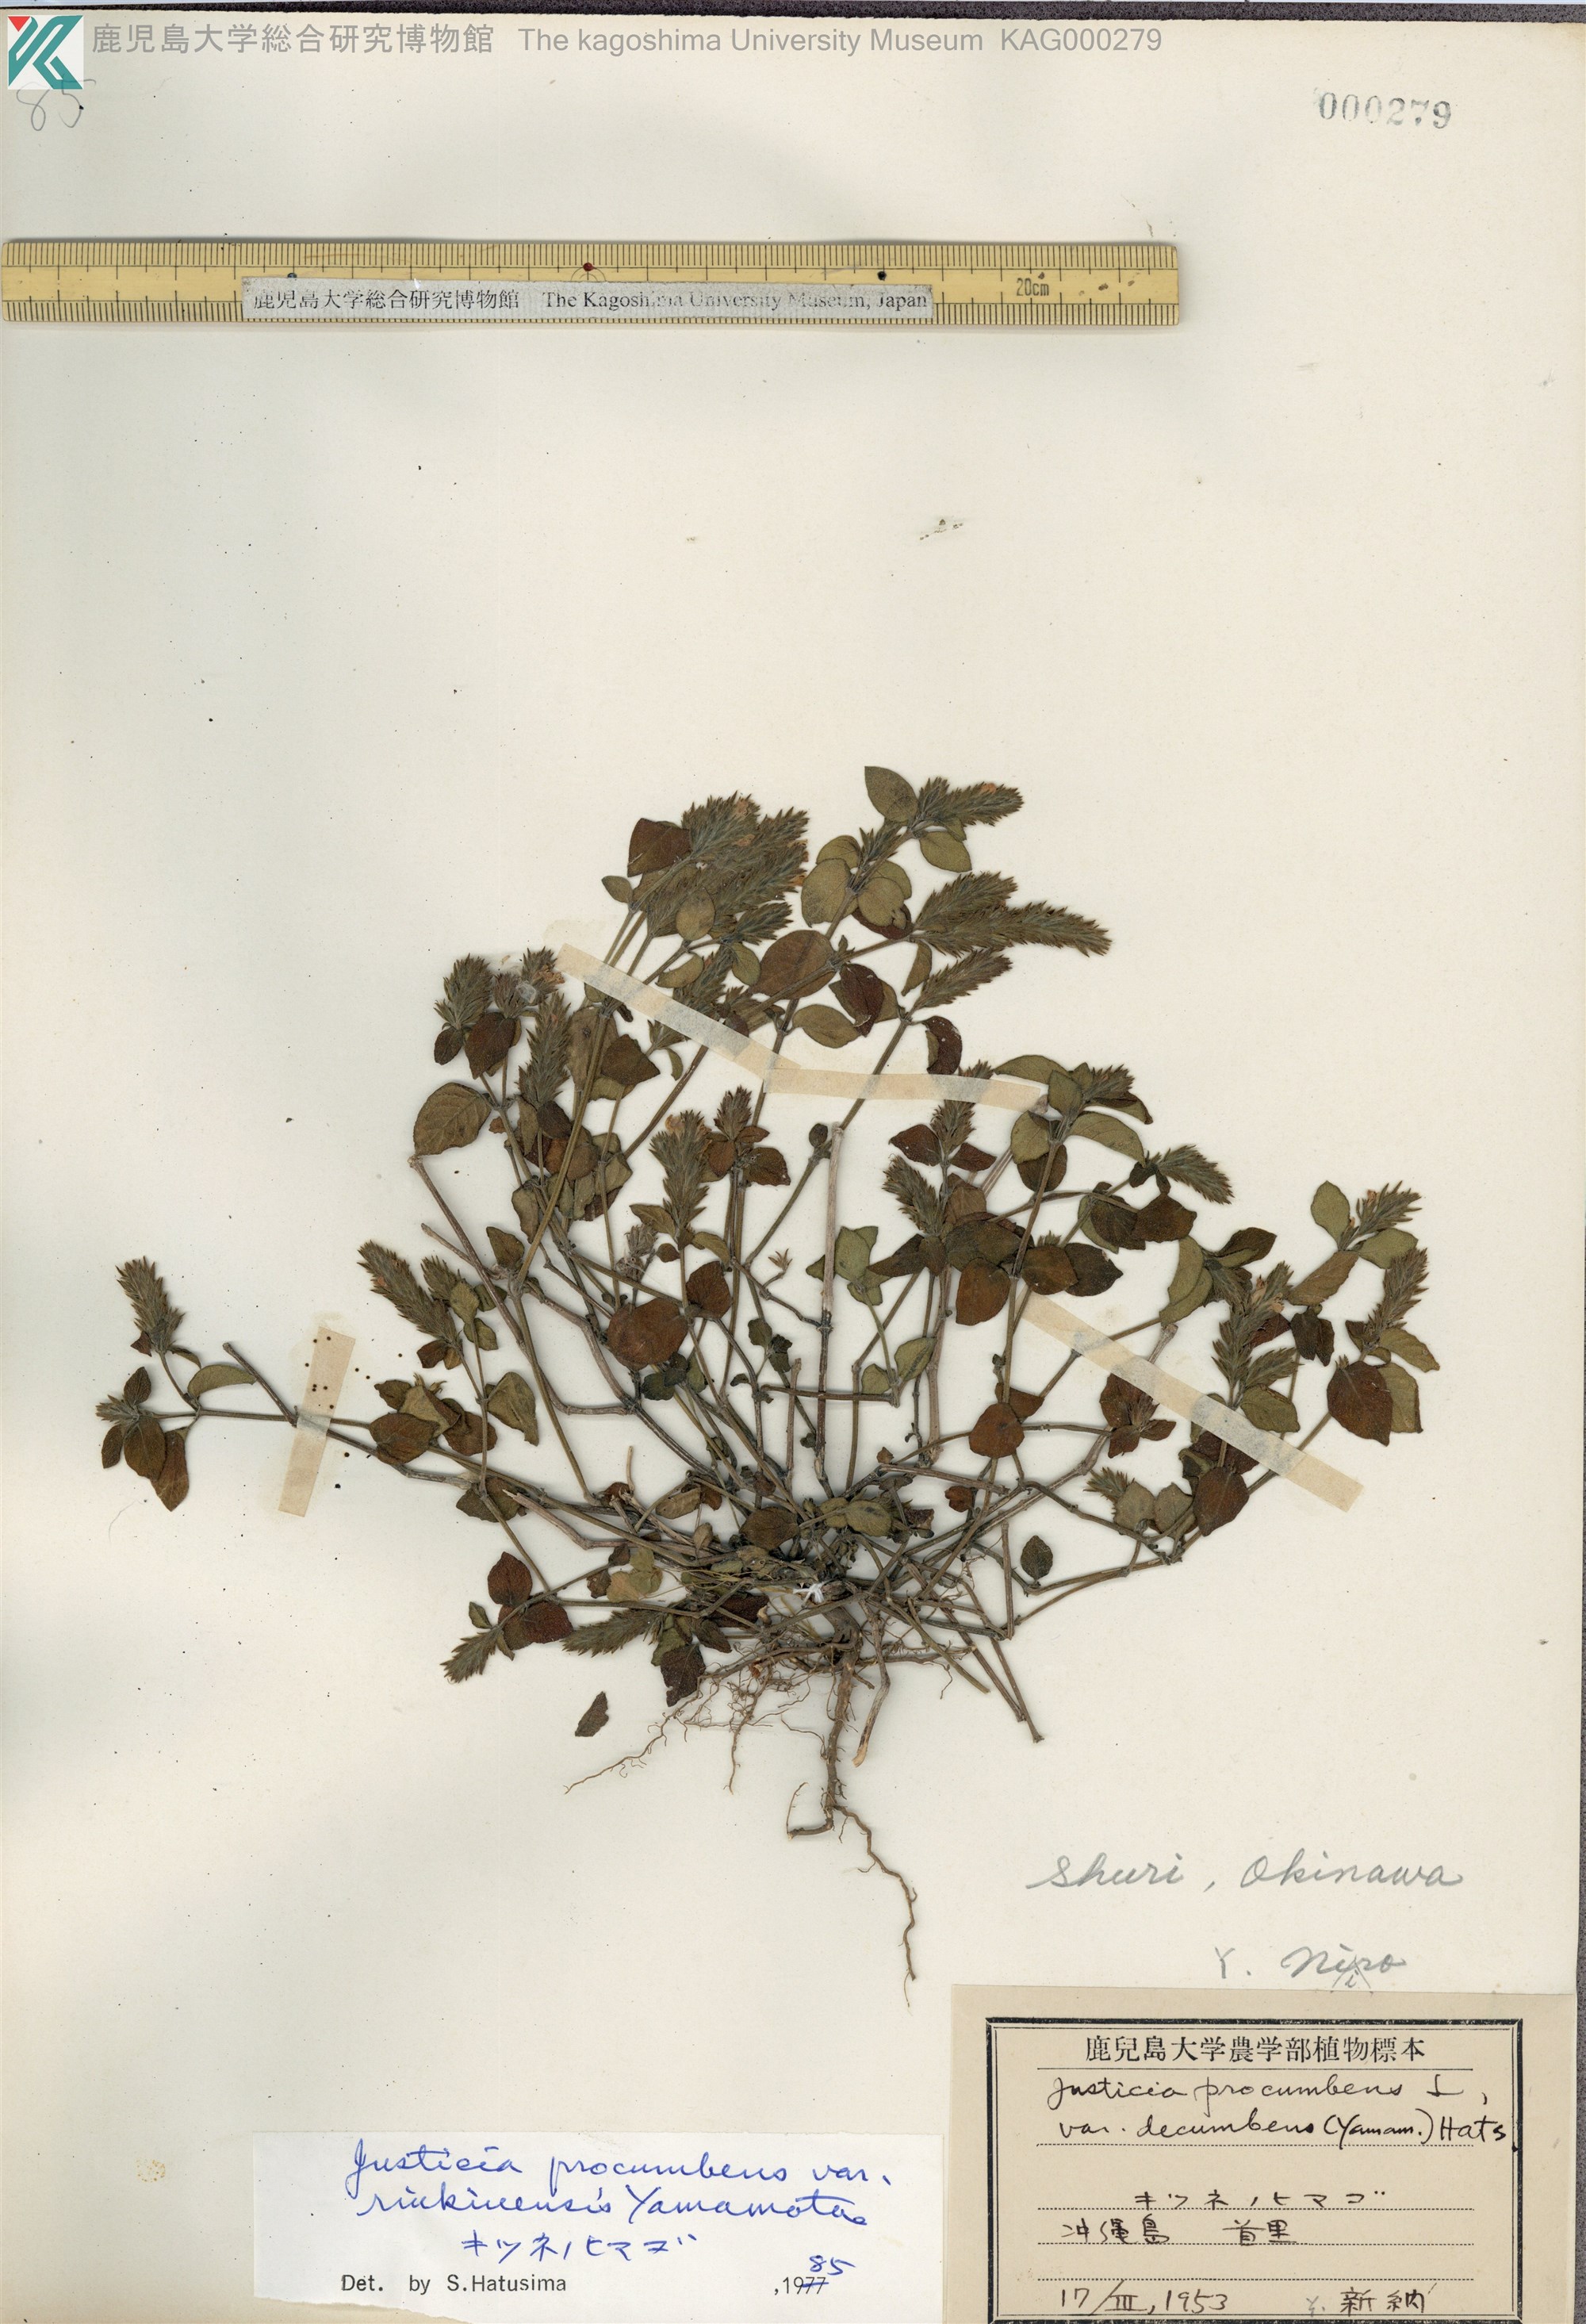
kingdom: Plantae
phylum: Tracheophyta
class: Magnoliopsida
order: Lamiales
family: Acanthaceae
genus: Rostellularia
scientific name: Rostellularia procumbens
